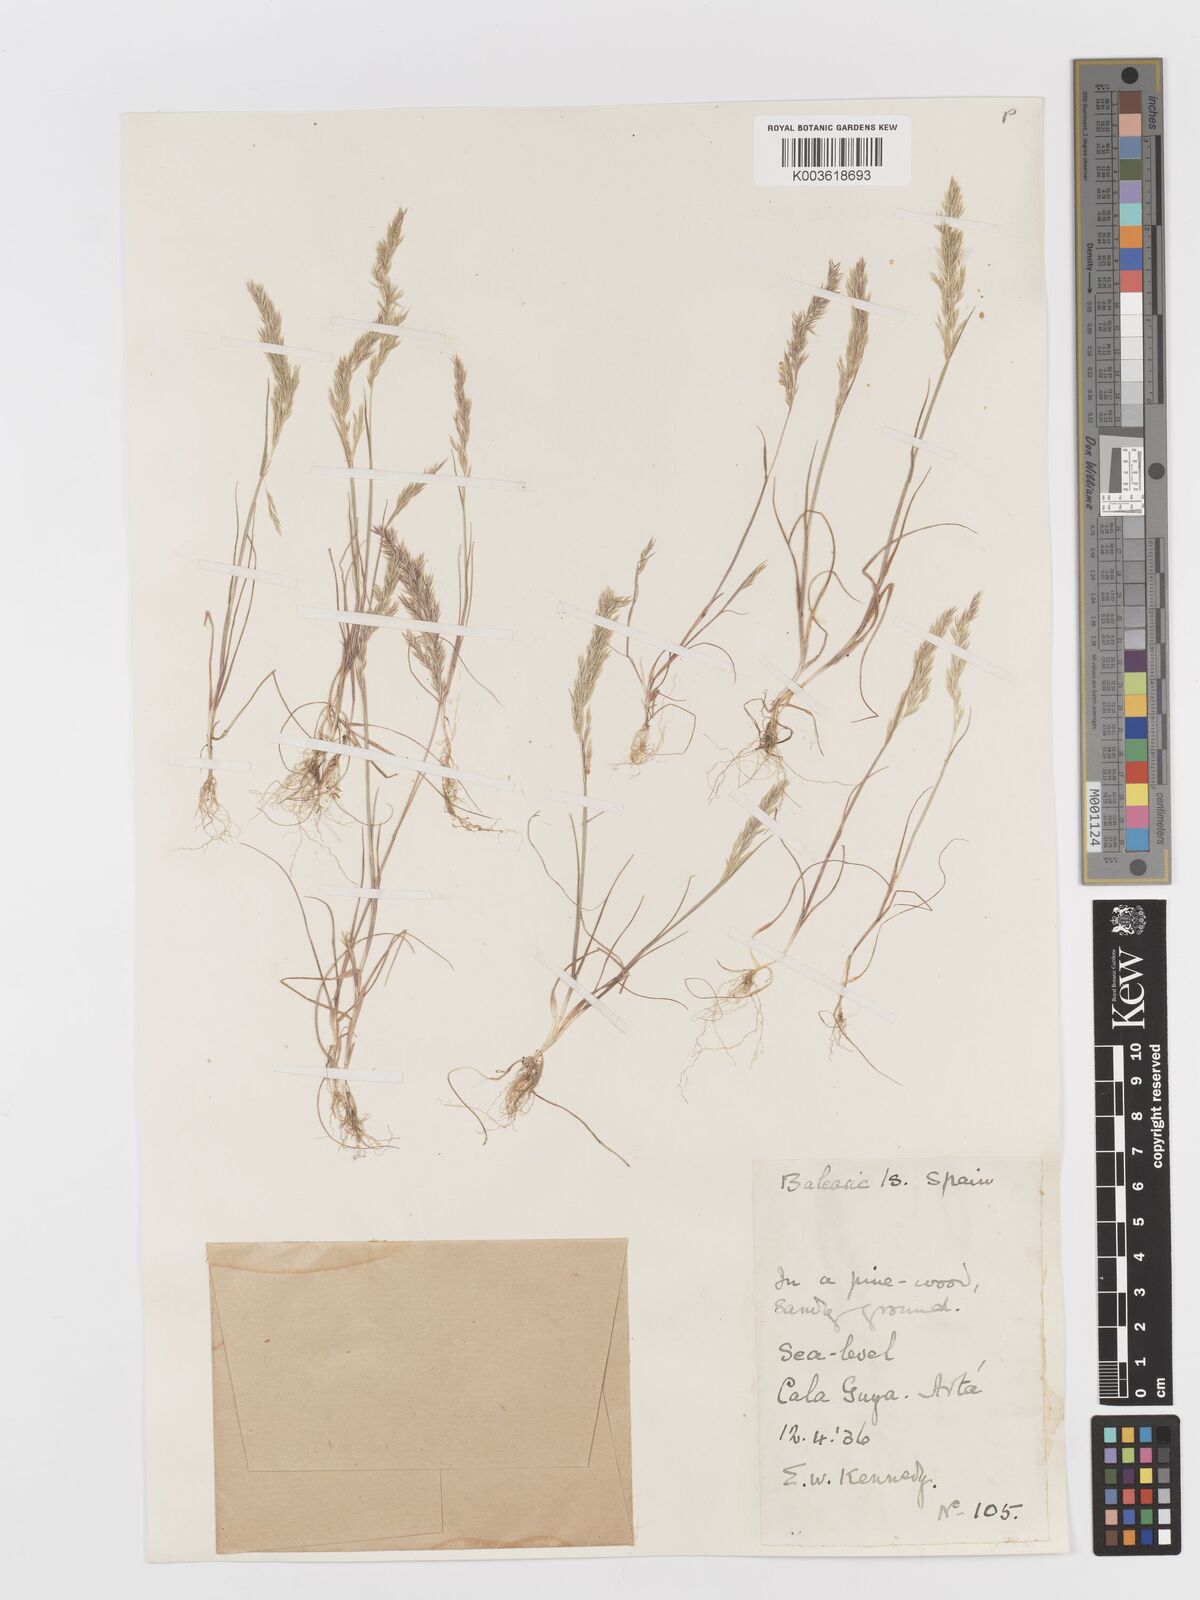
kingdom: Plantae
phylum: Tracheophyta
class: Liliopsida
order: Poales
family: Poaceae
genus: Avellinia
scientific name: Avellinia festucoides
